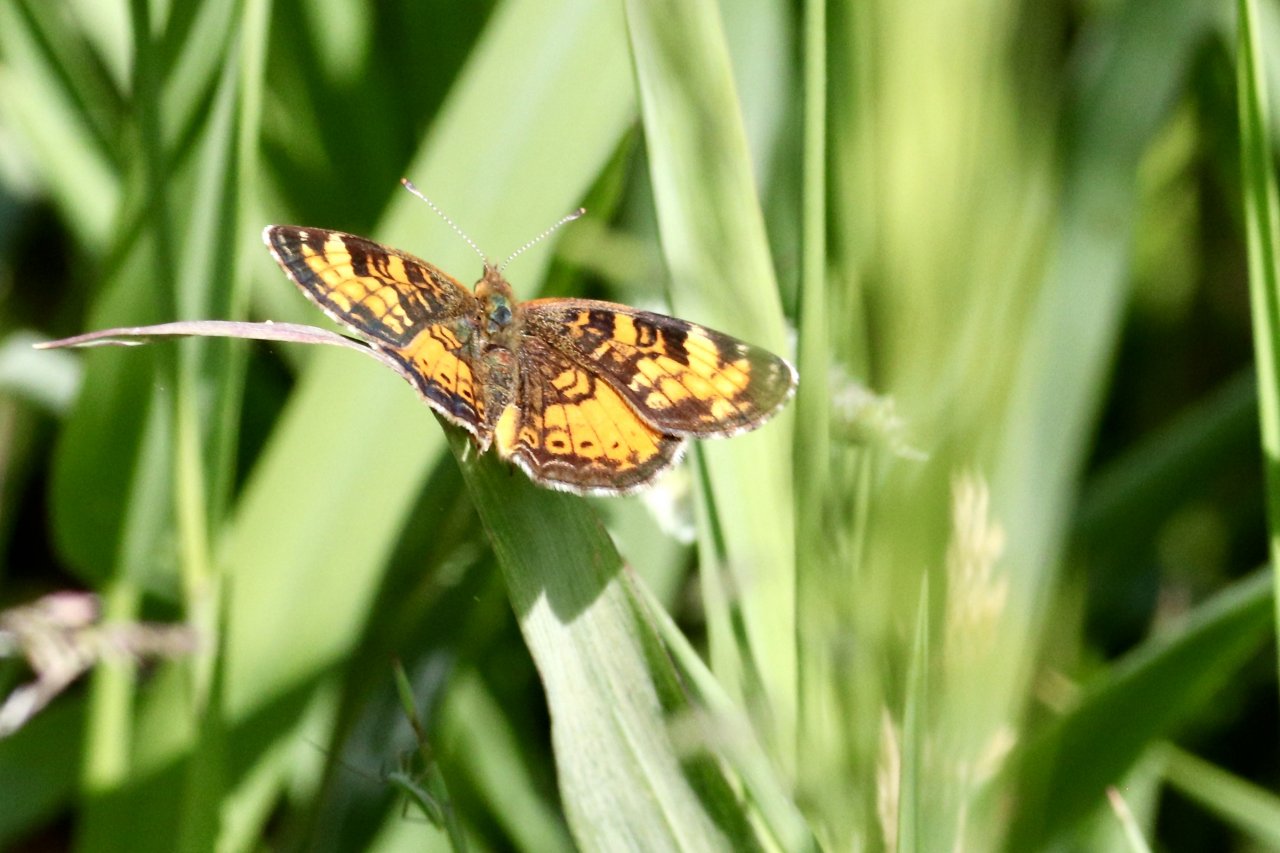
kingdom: Animalia
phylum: Arthropoda
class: Insecta
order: Lepidoptera
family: Nymphalidae
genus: Phyciodes
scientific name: Phyciodes tharos
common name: Northern Crescent
